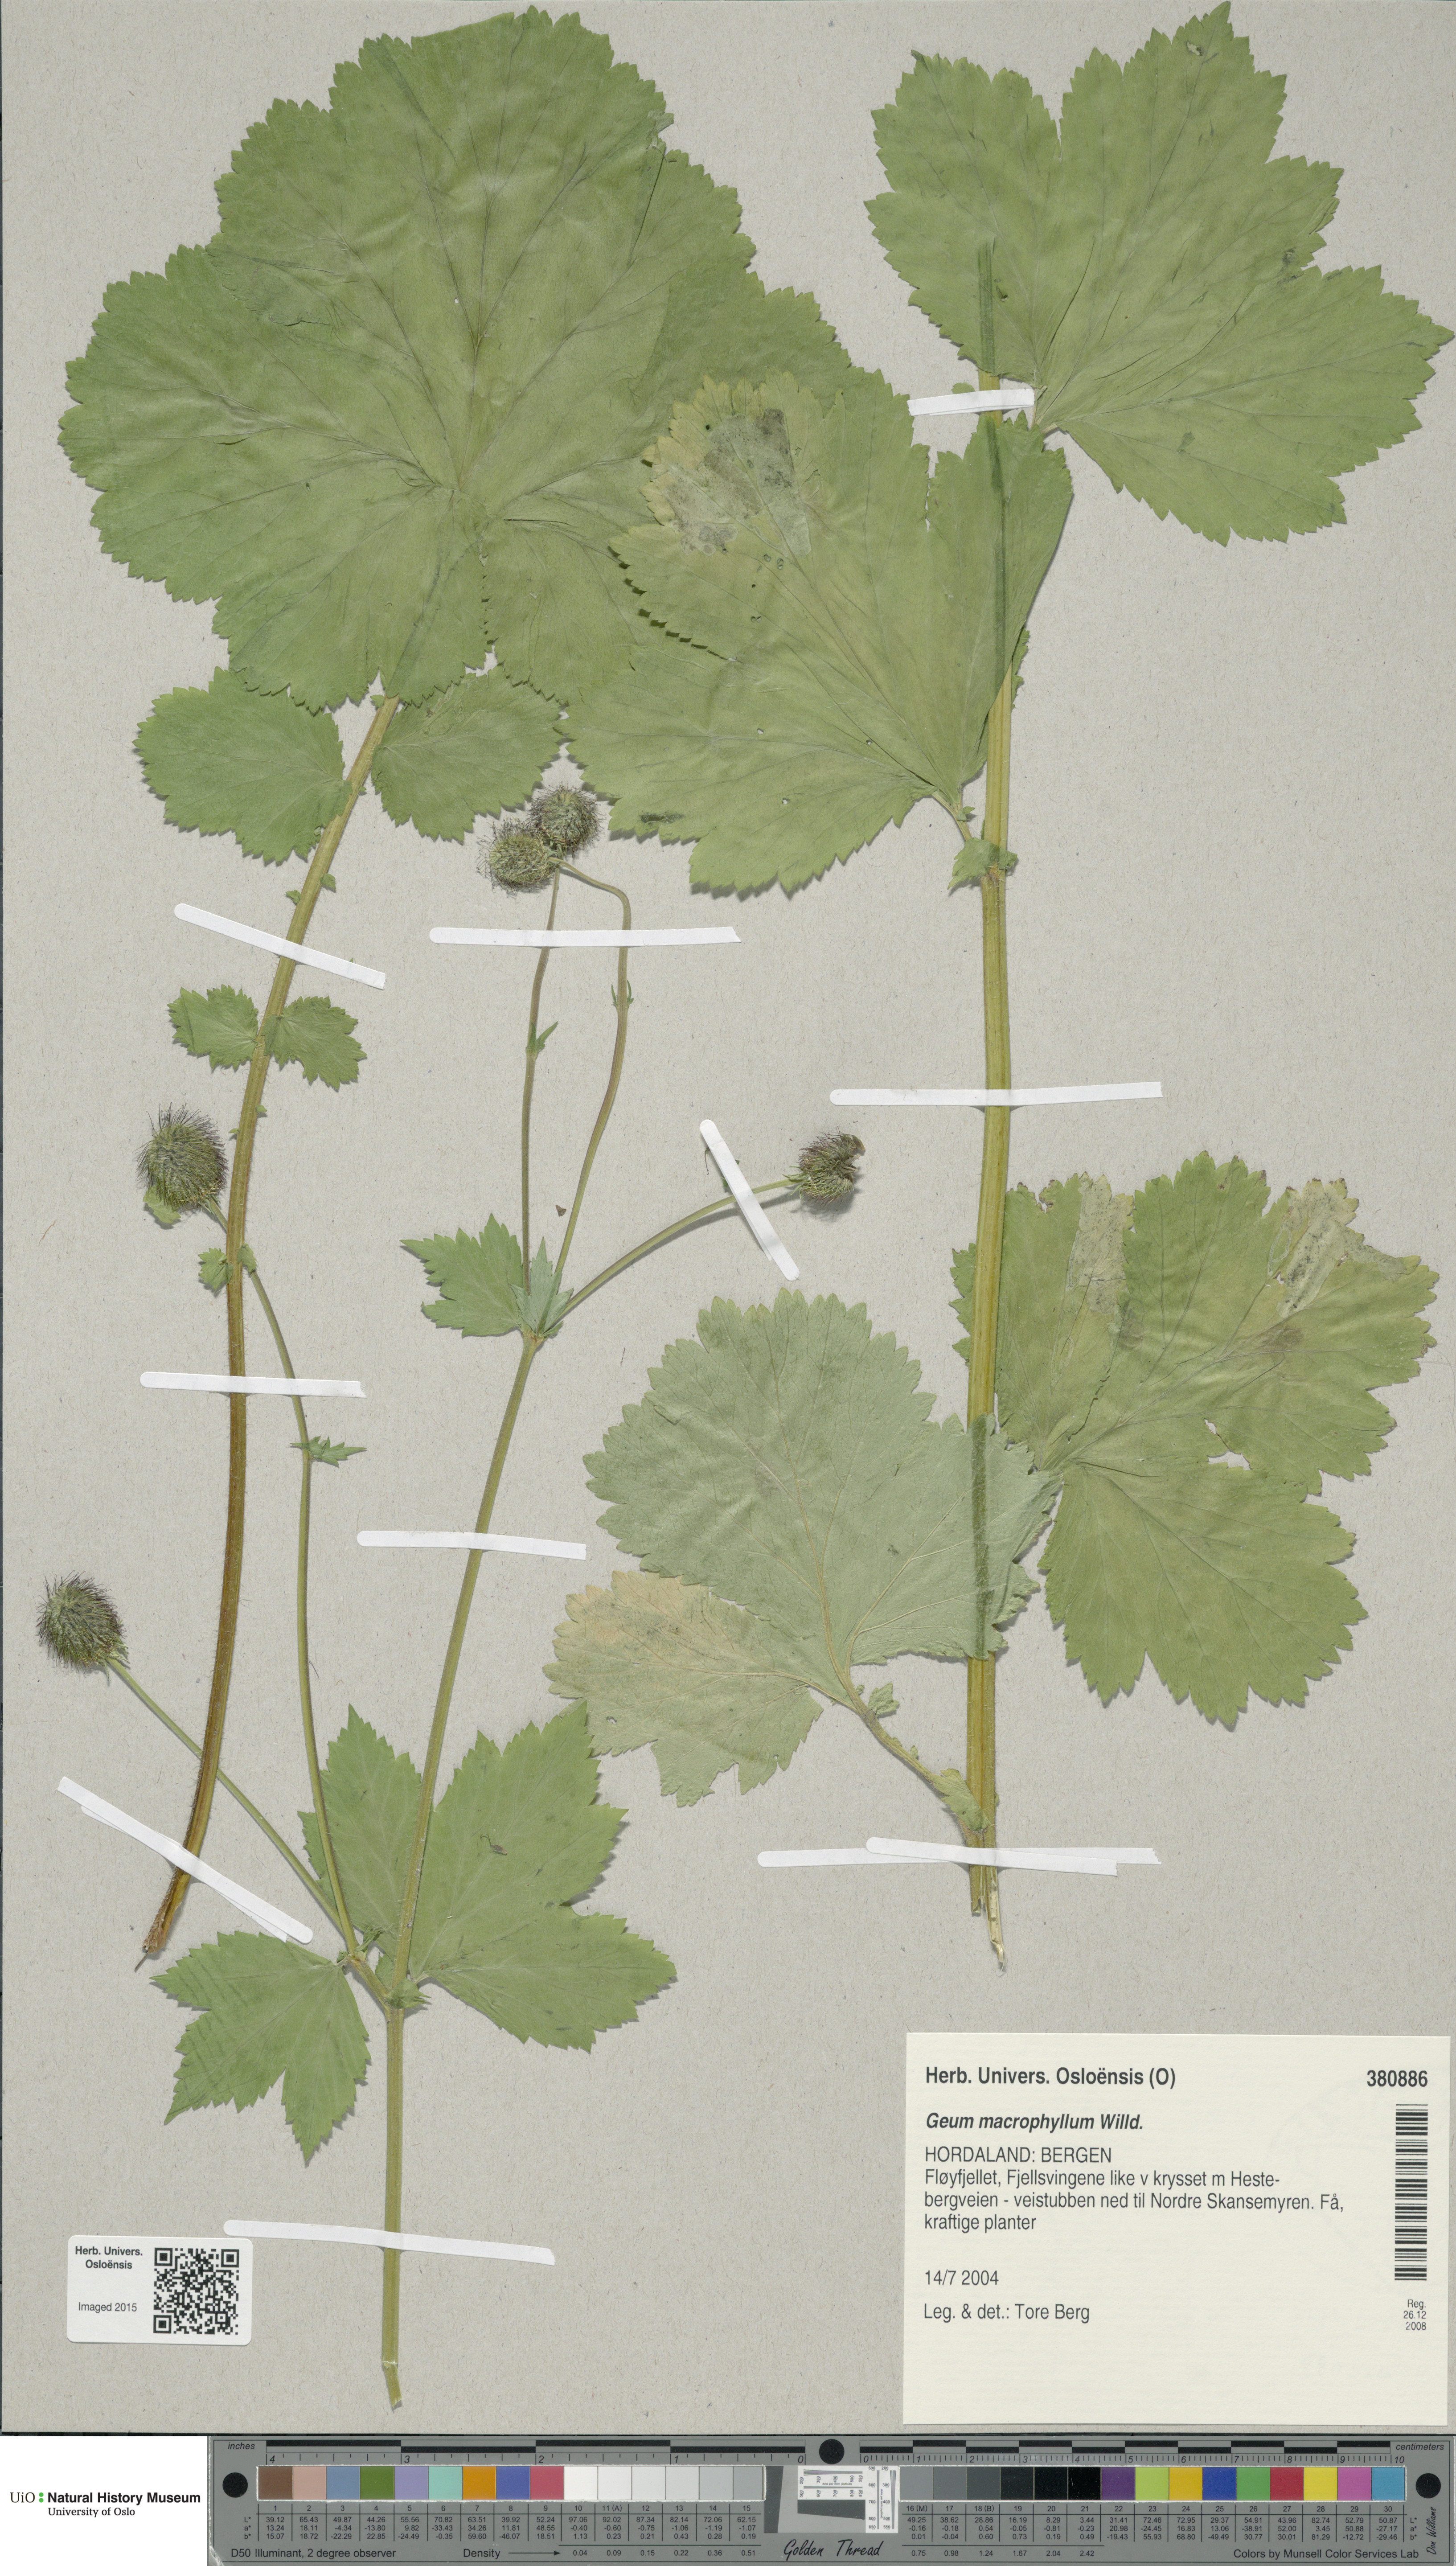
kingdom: Plantae
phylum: Tracheophyta
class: Magnoliopsida
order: Rosales
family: Rosaceae
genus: Geum
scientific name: Geum macrophyllum
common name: Large-leaved avens
